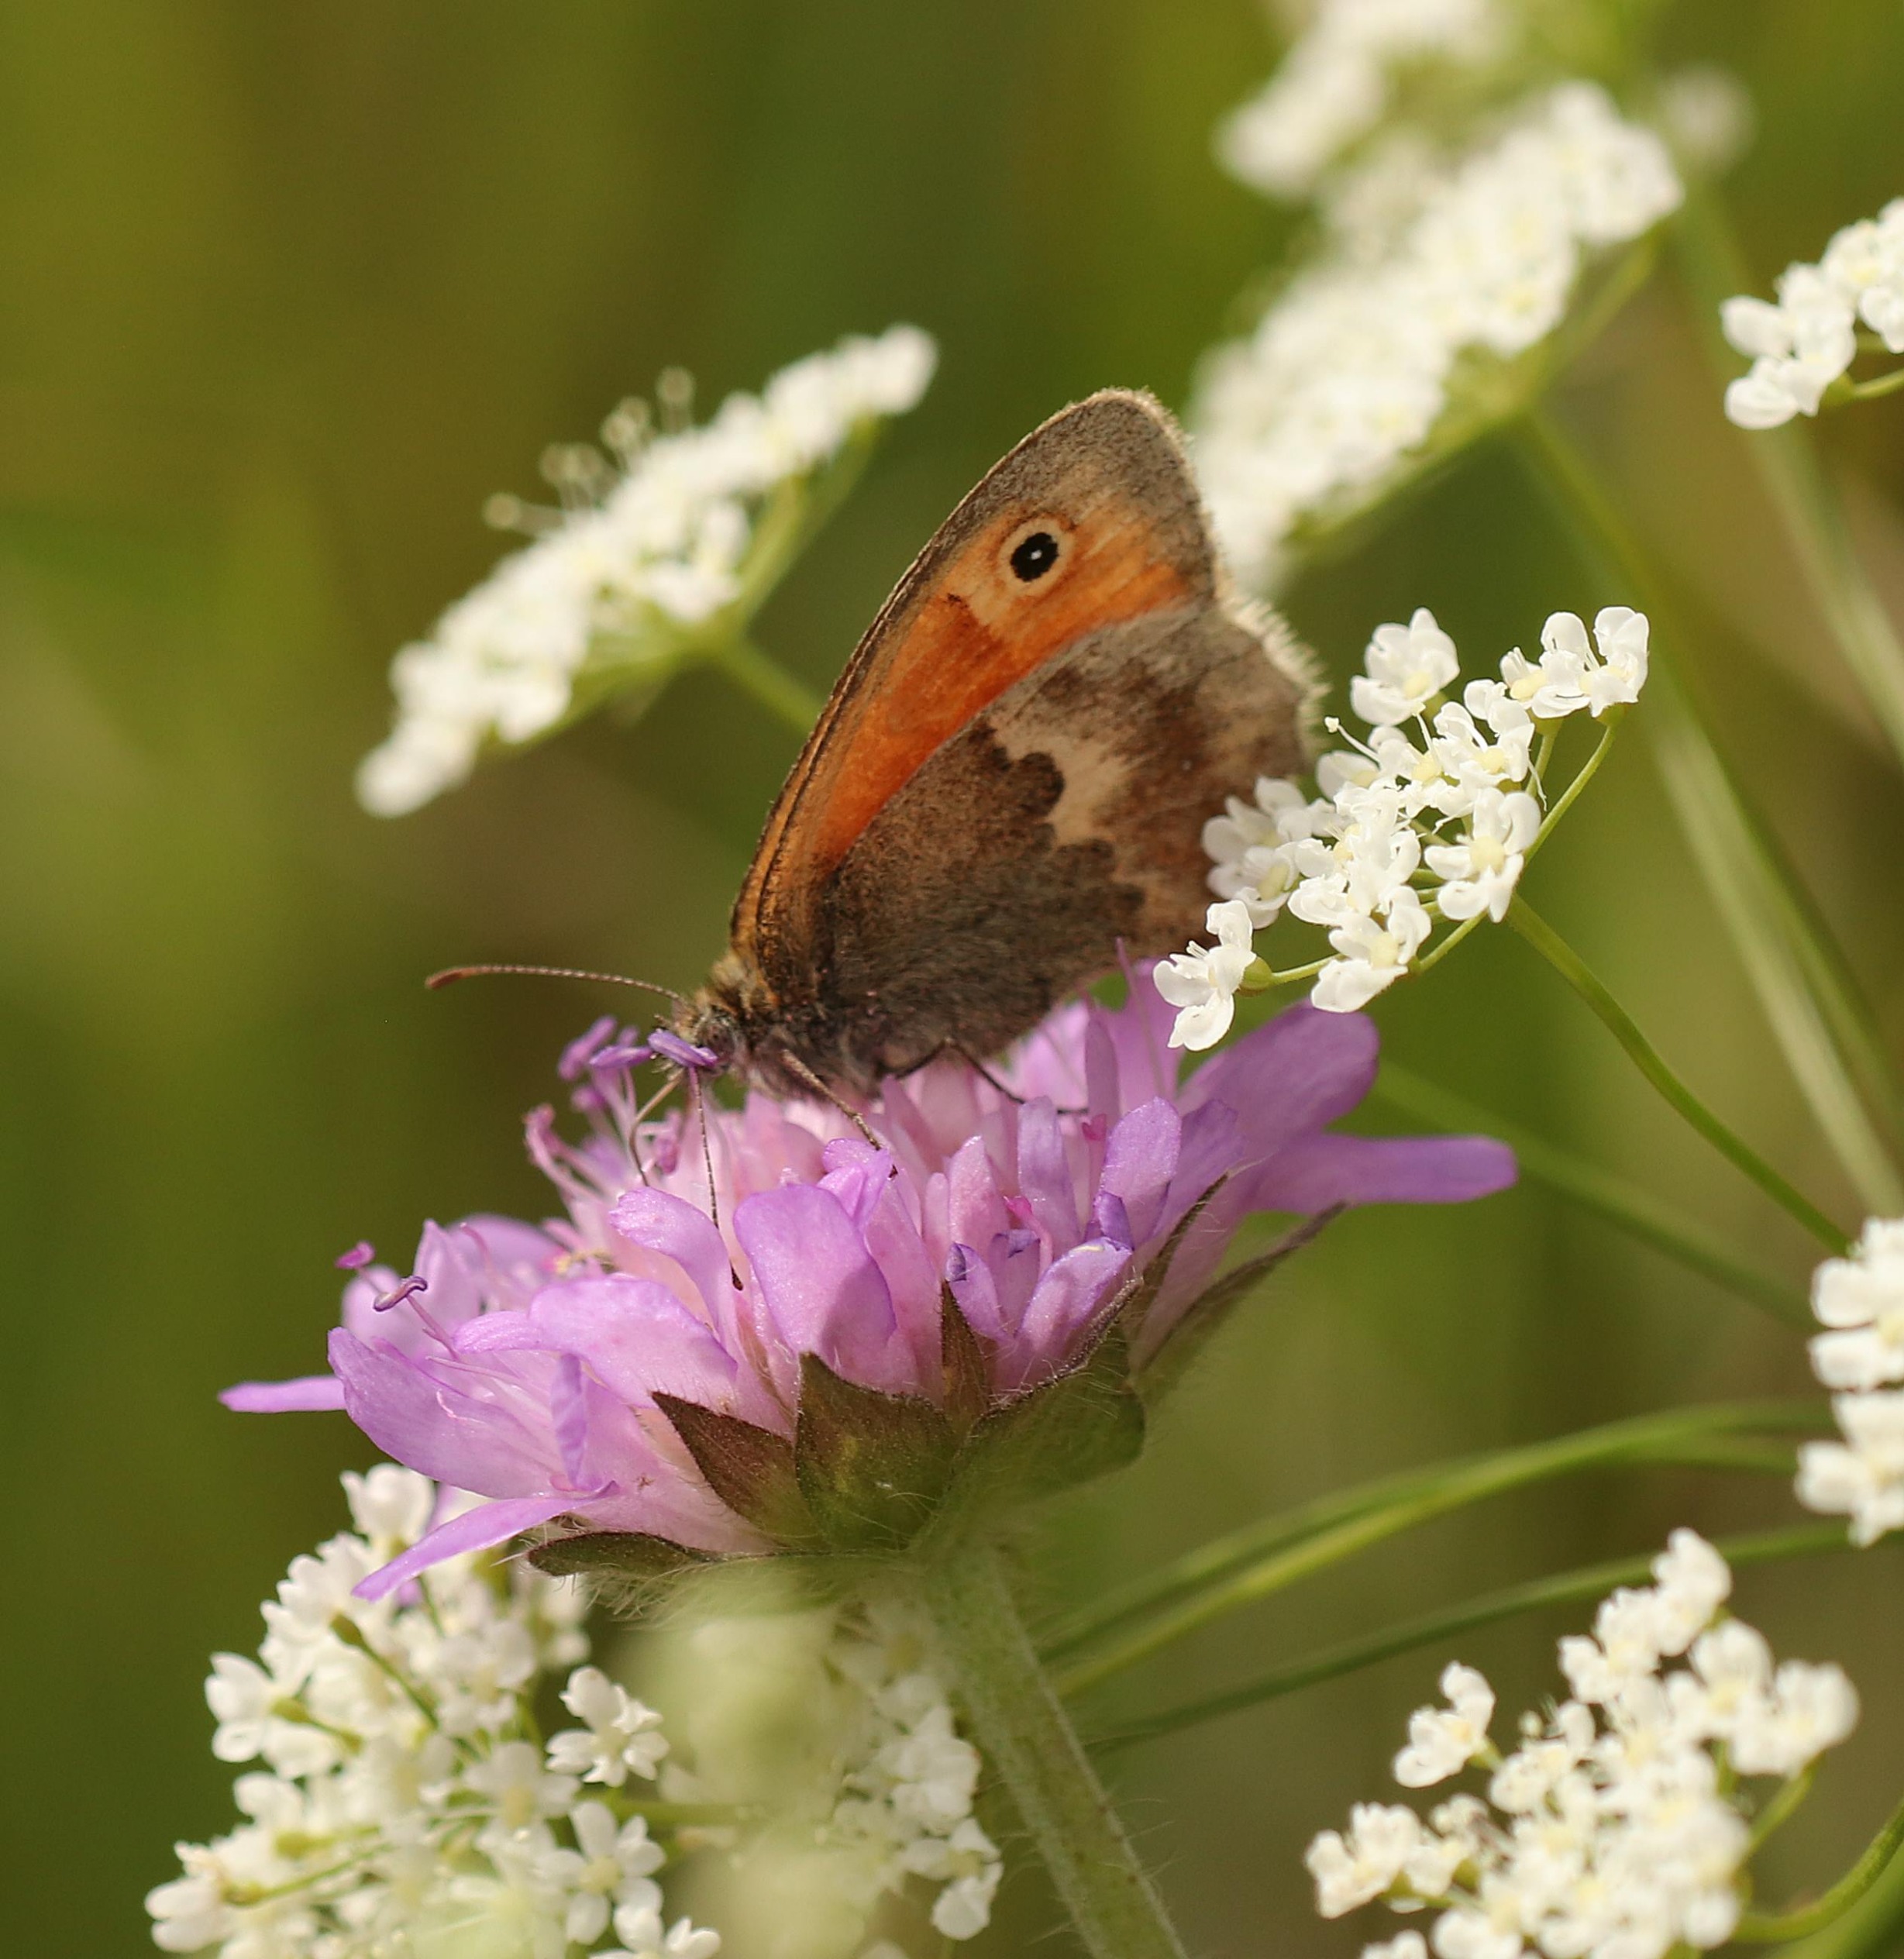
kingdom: Animalia
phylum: Arthropoda
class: Insecta
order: Lepidoptera
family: Nymphalidae
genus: Coenonympha
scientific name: Coenonympha pamphilus
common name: Okkergul randøje
